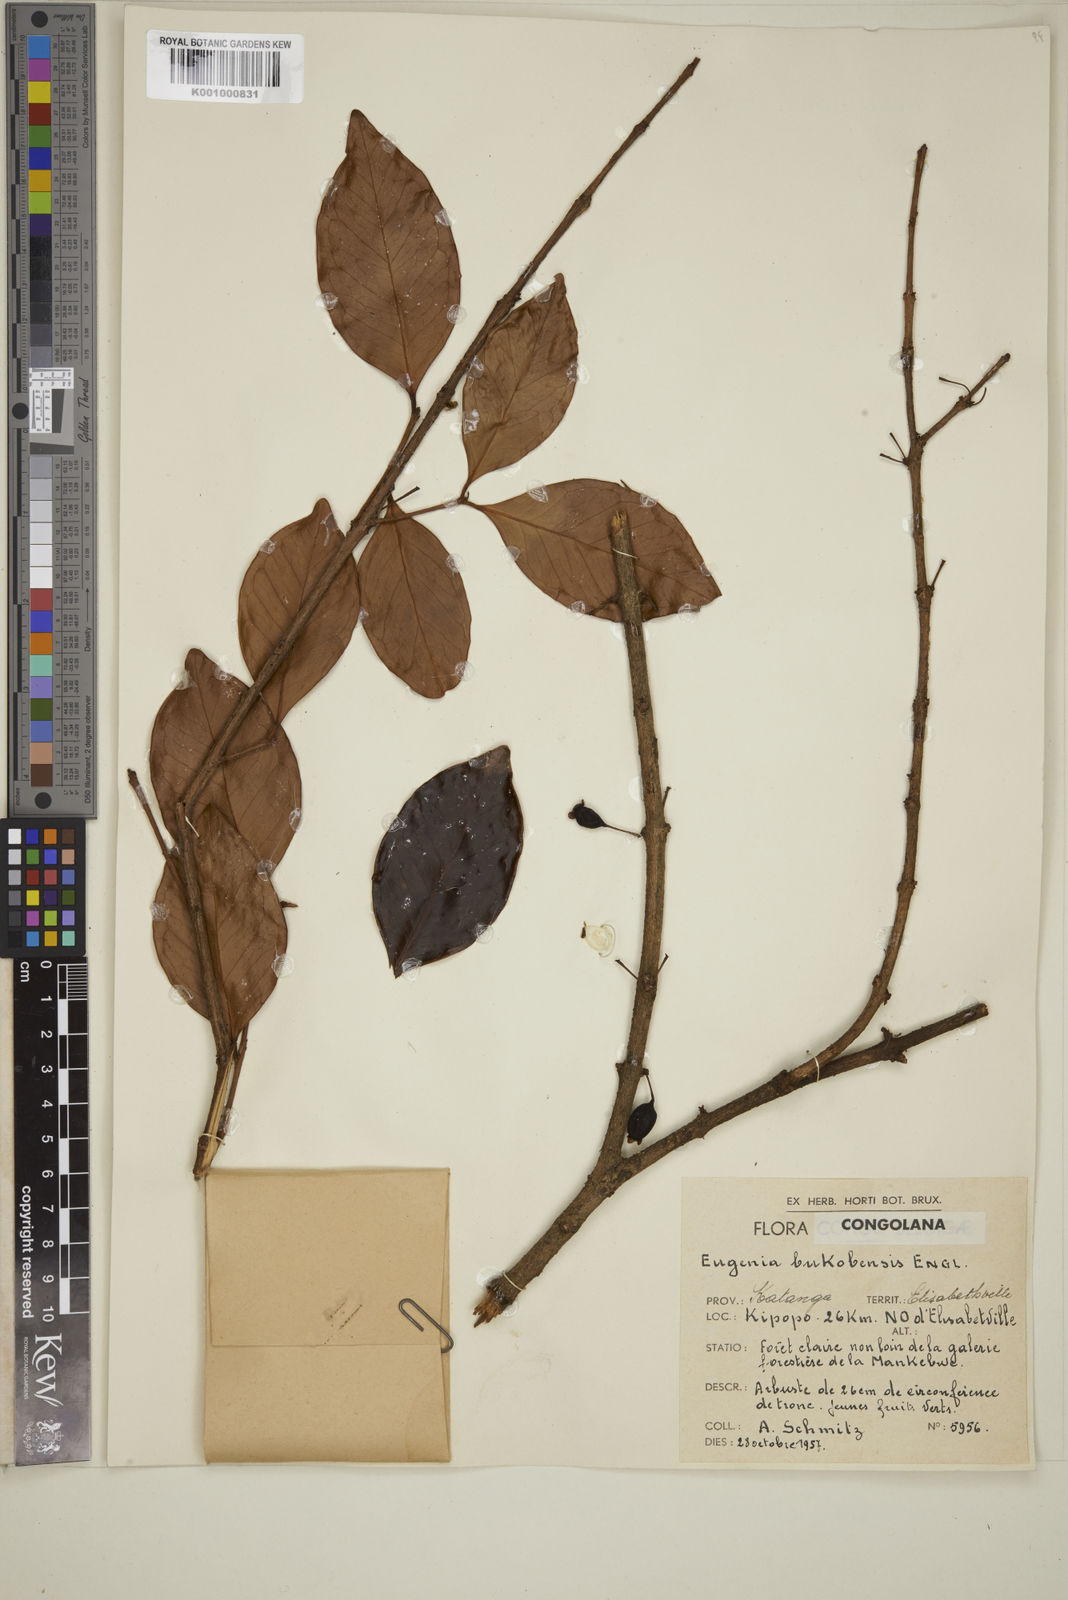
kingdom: Plantae
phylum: Tracheophyta
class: Magnoliopsida
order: Myrtales
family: Myrtaceae
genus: Eugenia
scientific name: Eugenia bukobensis
